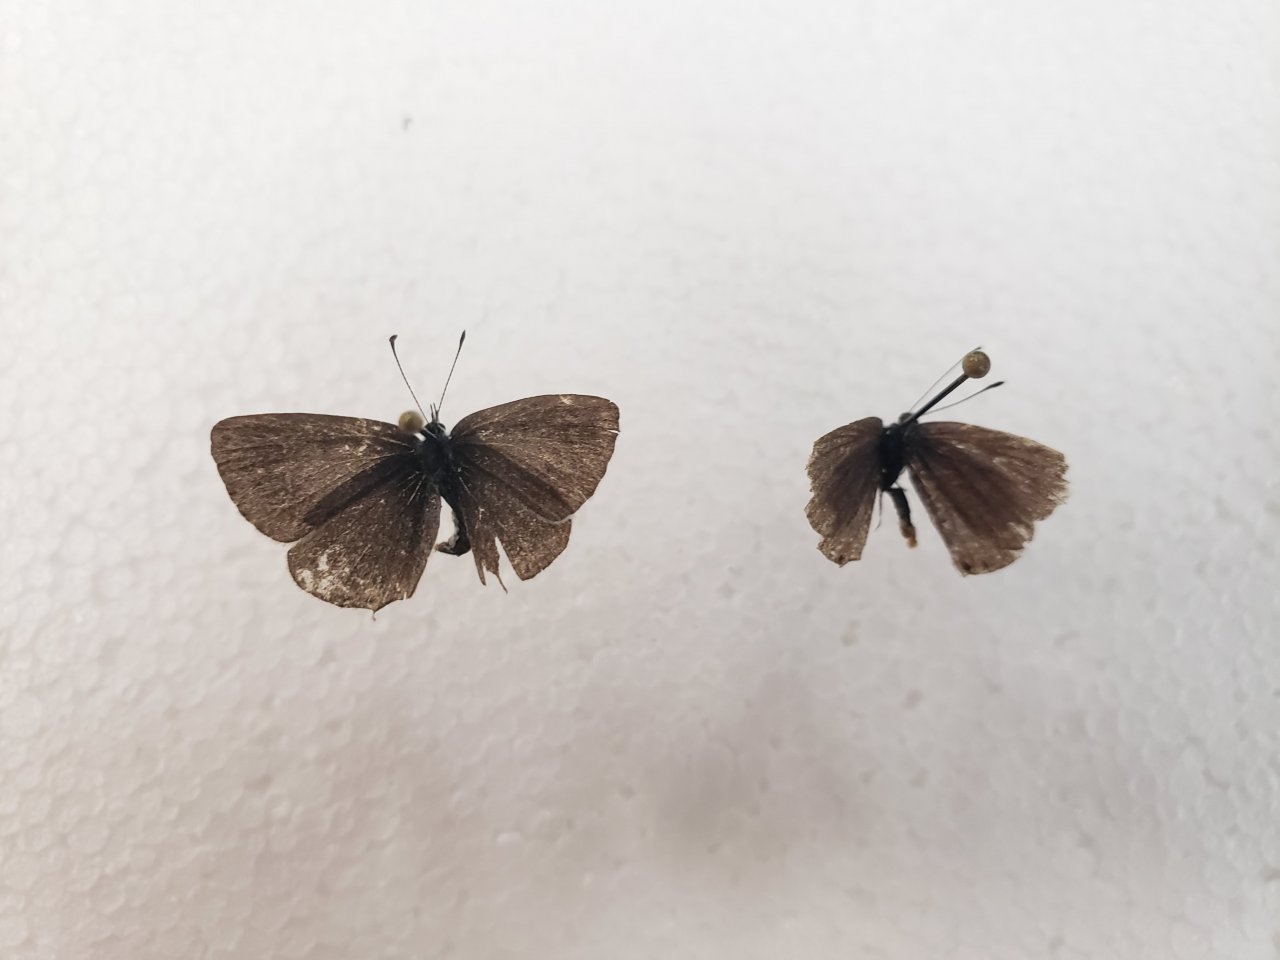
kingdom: Animalia
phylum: Arthropoda
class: Insecta
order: Lepidoptera
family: Lycaenidae
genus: Elkalyce
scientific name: Elkalyce amyntula
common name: Western Tailed-Blue
